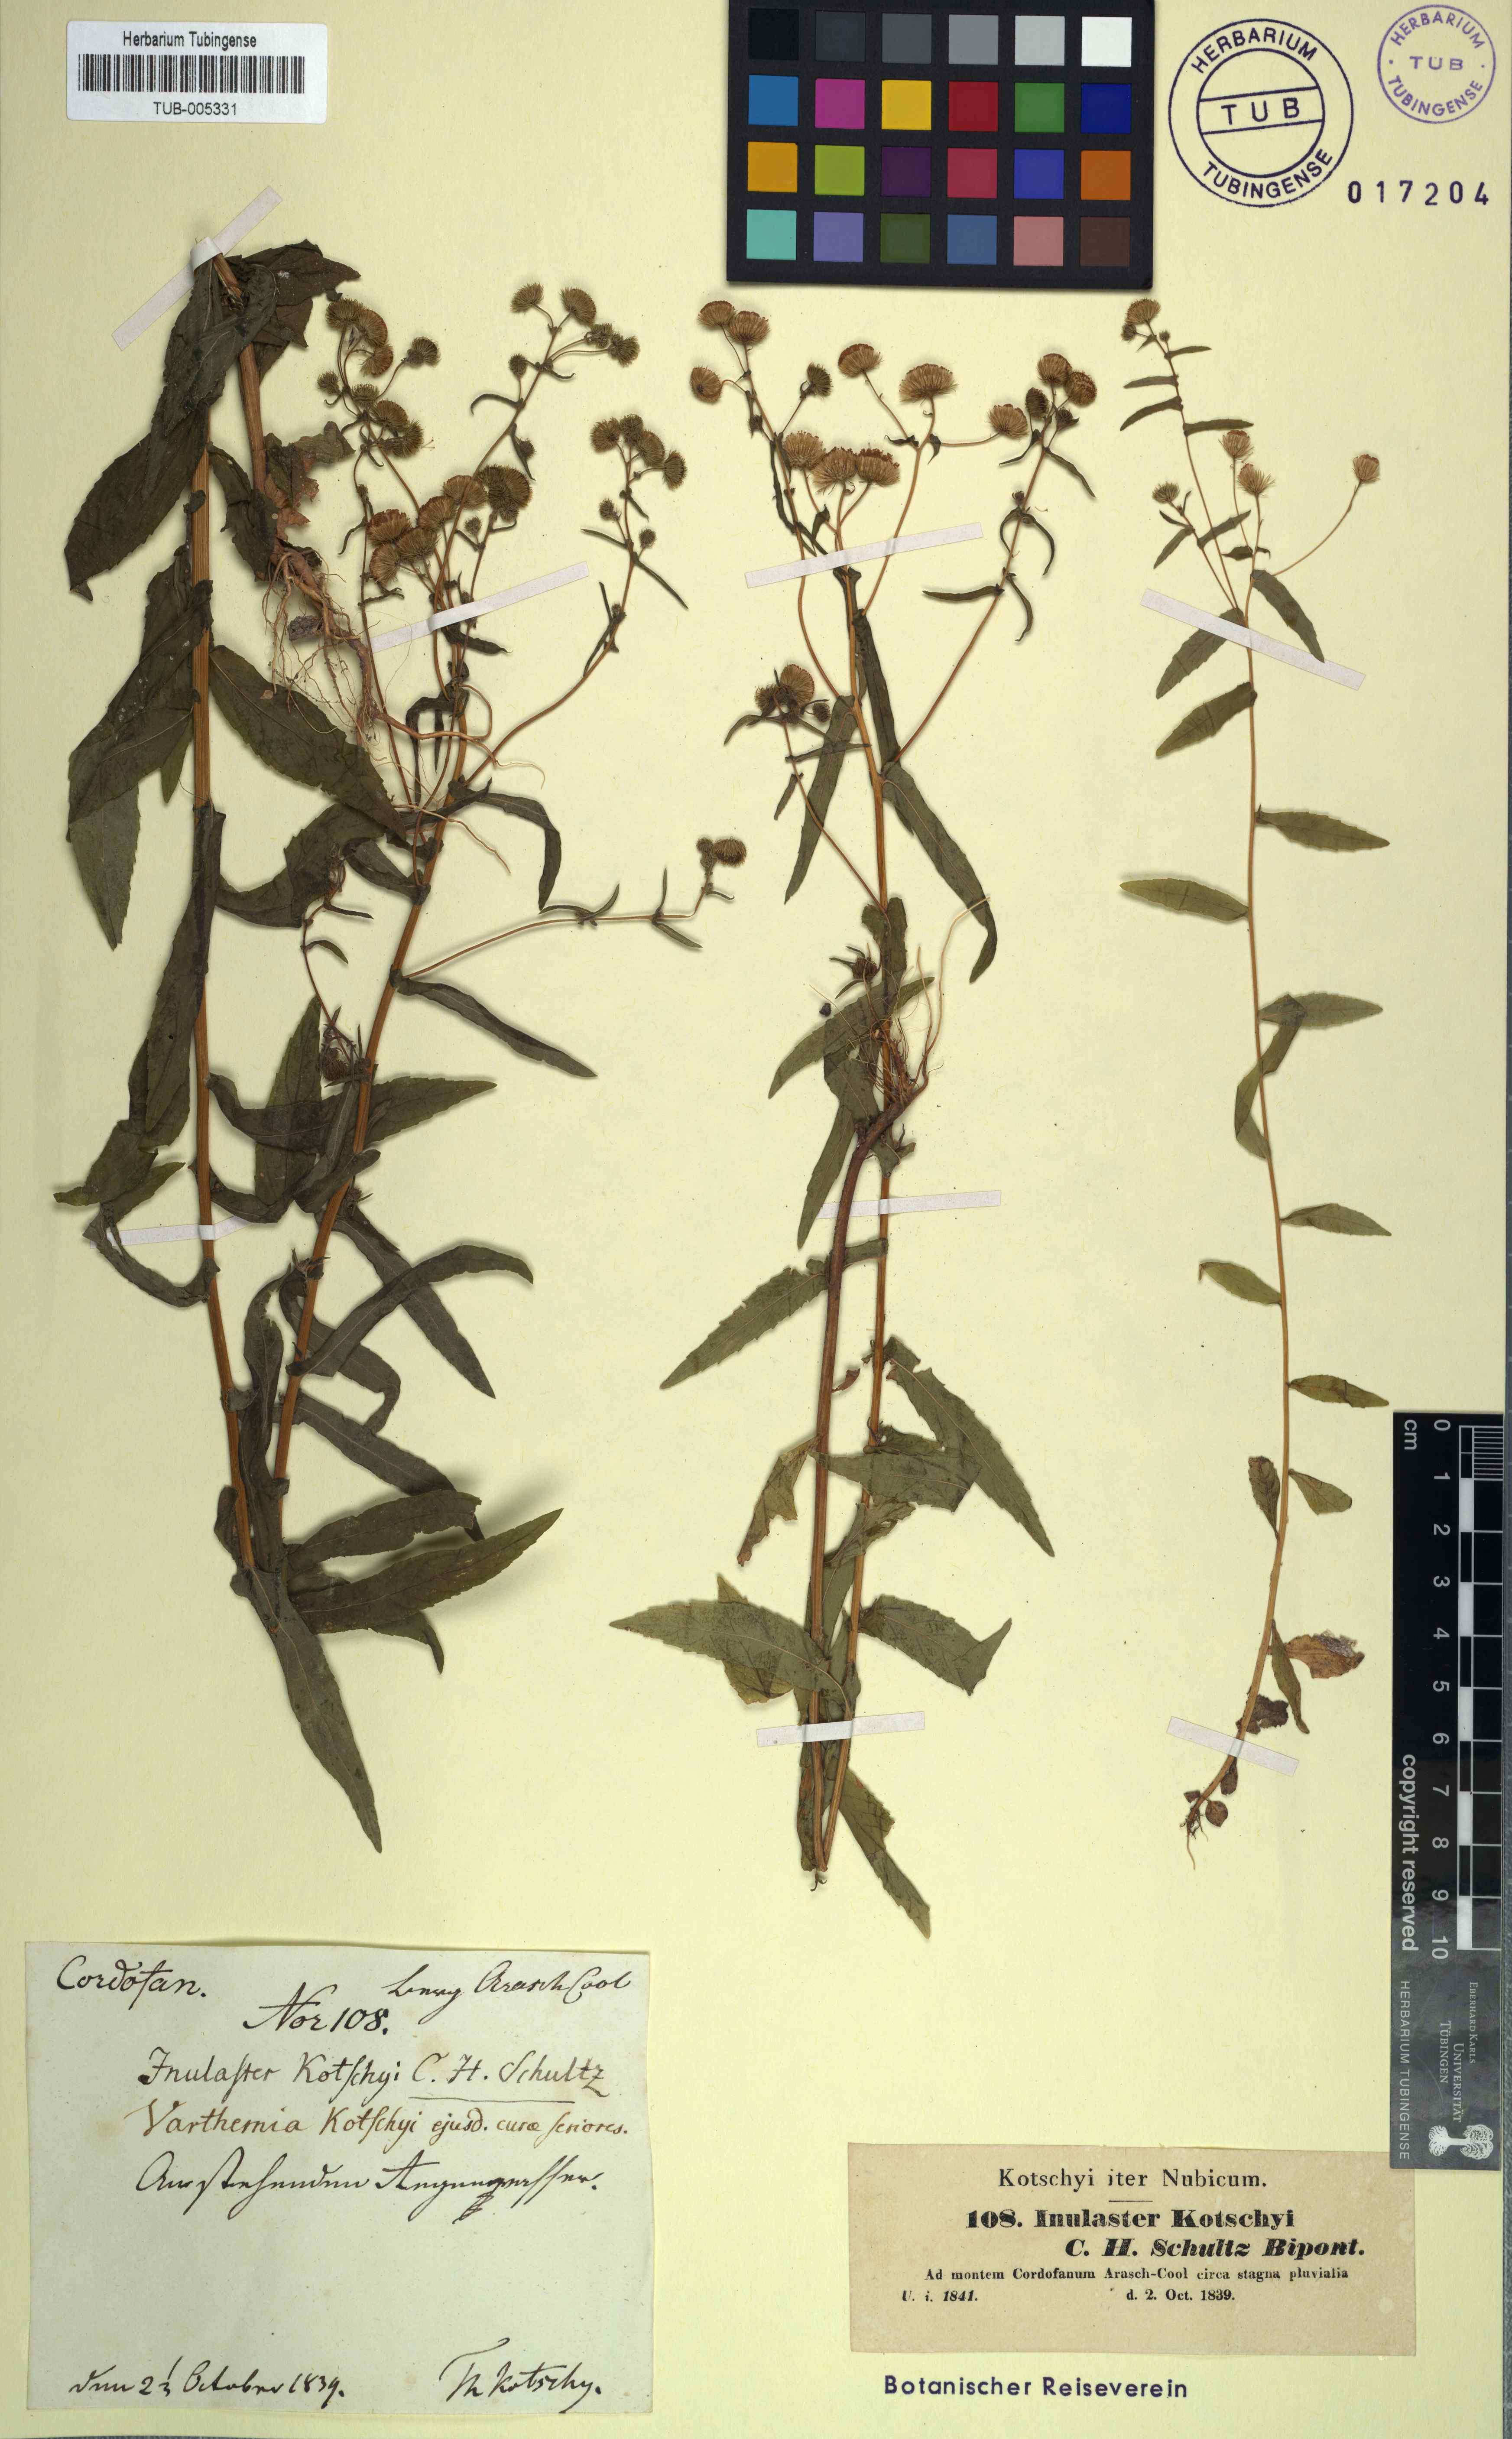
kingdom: Plantae
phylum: Tracheophyta
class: Magnoliopsida
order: Asterales
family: Asteraceae
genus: Vicoa
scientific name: Vicoa indica
